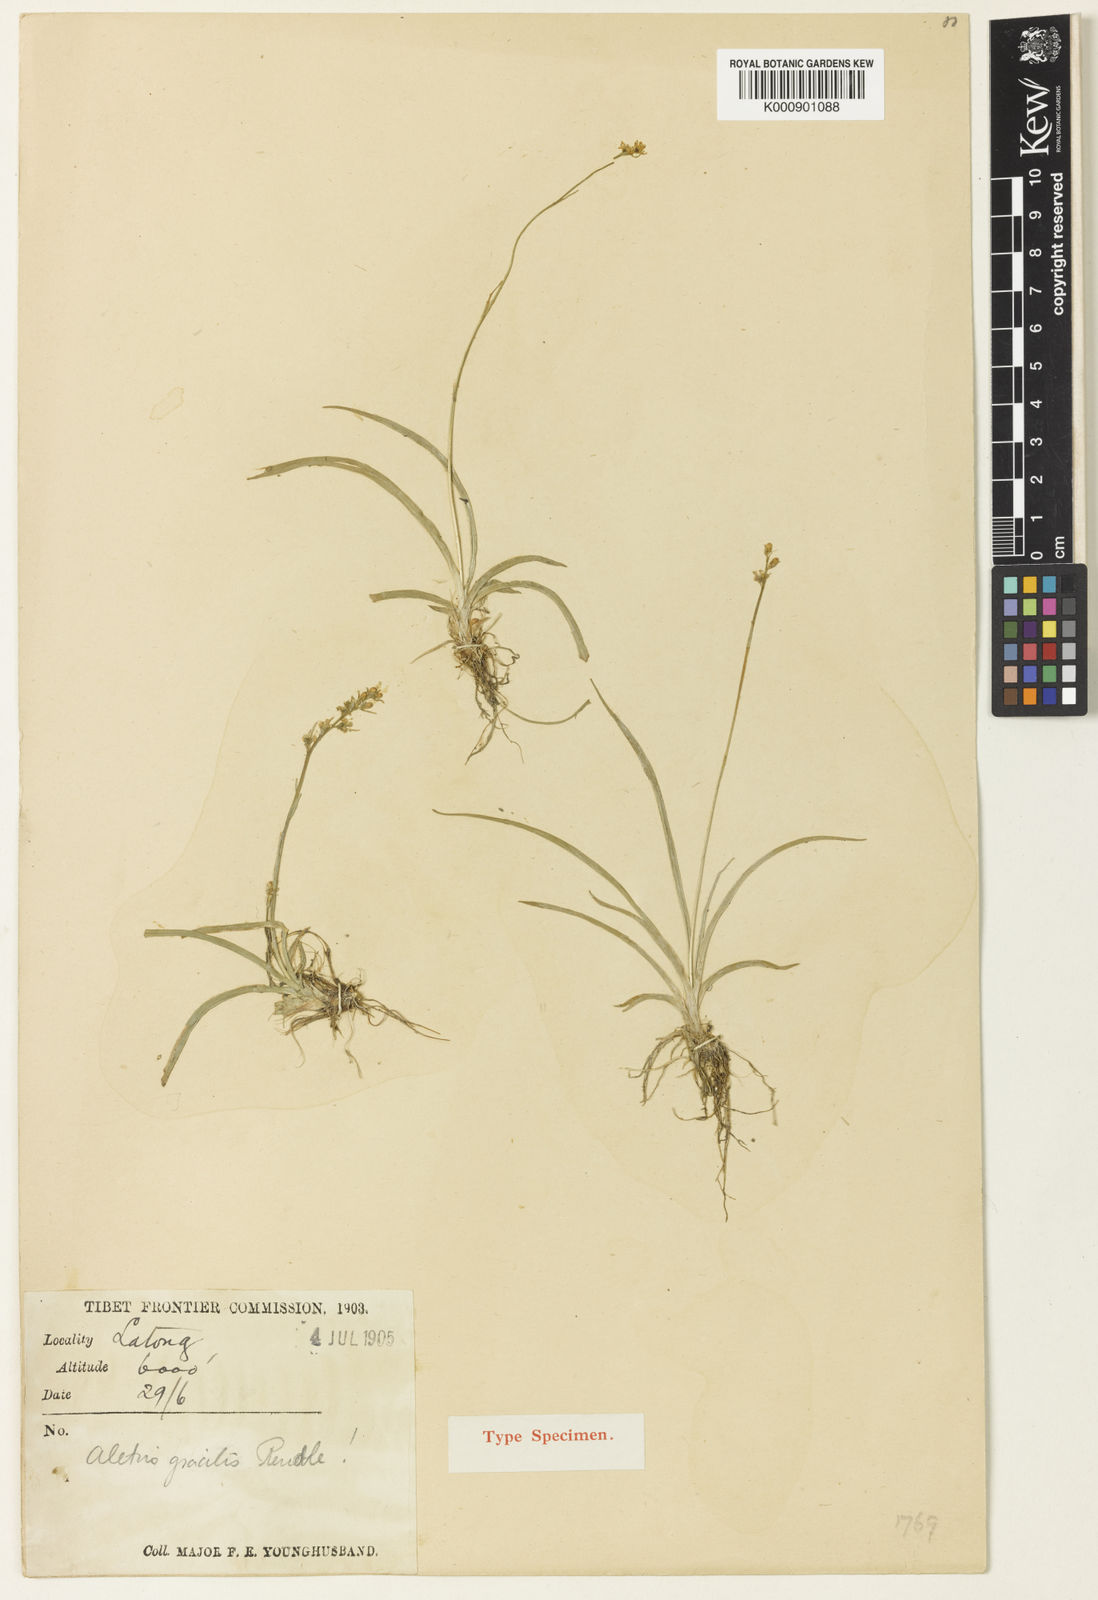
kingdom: Plantae
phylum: Tracheophyta
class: Liliopsida
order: Dioscoreales
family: Nartheciaceae
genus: Aletris
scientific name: Aletris gracilis
